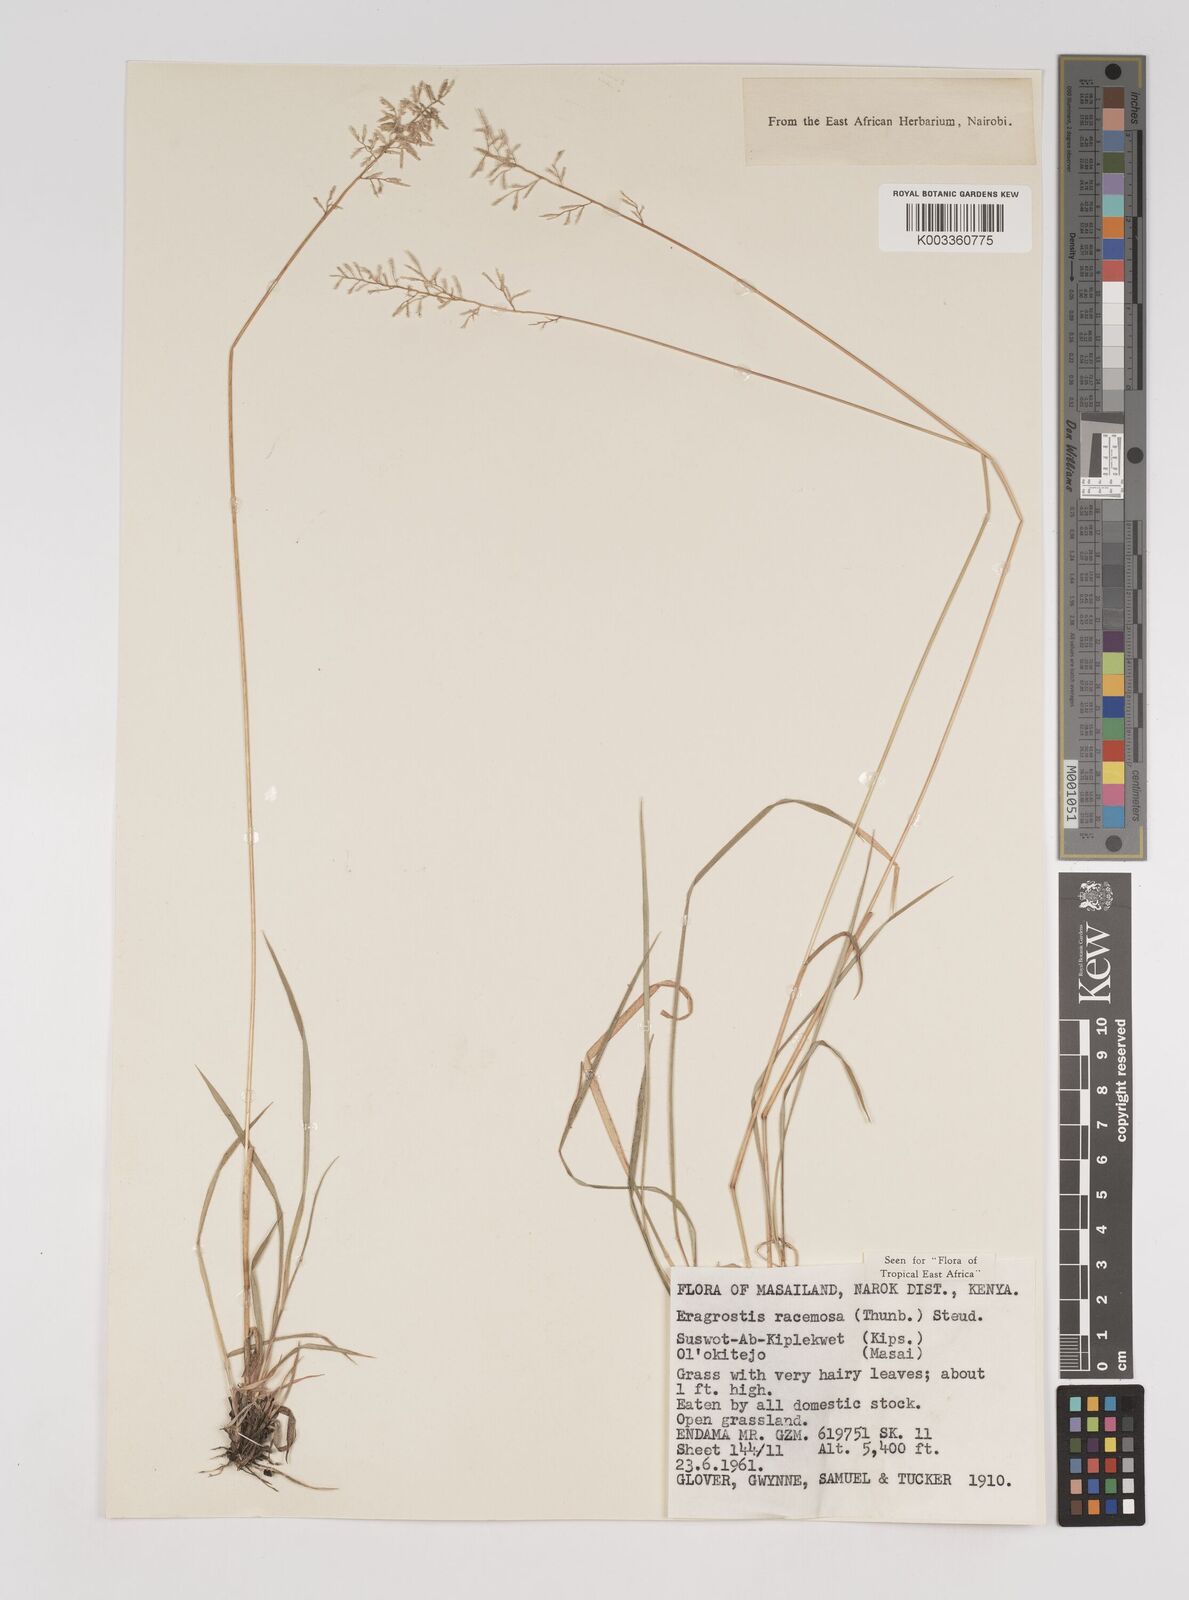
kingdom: Plantae
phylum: Tracheophyta
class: Liliopsida
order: Poales
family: Poaceae
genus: Eragrostis
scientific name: Eragrostis racemosa
